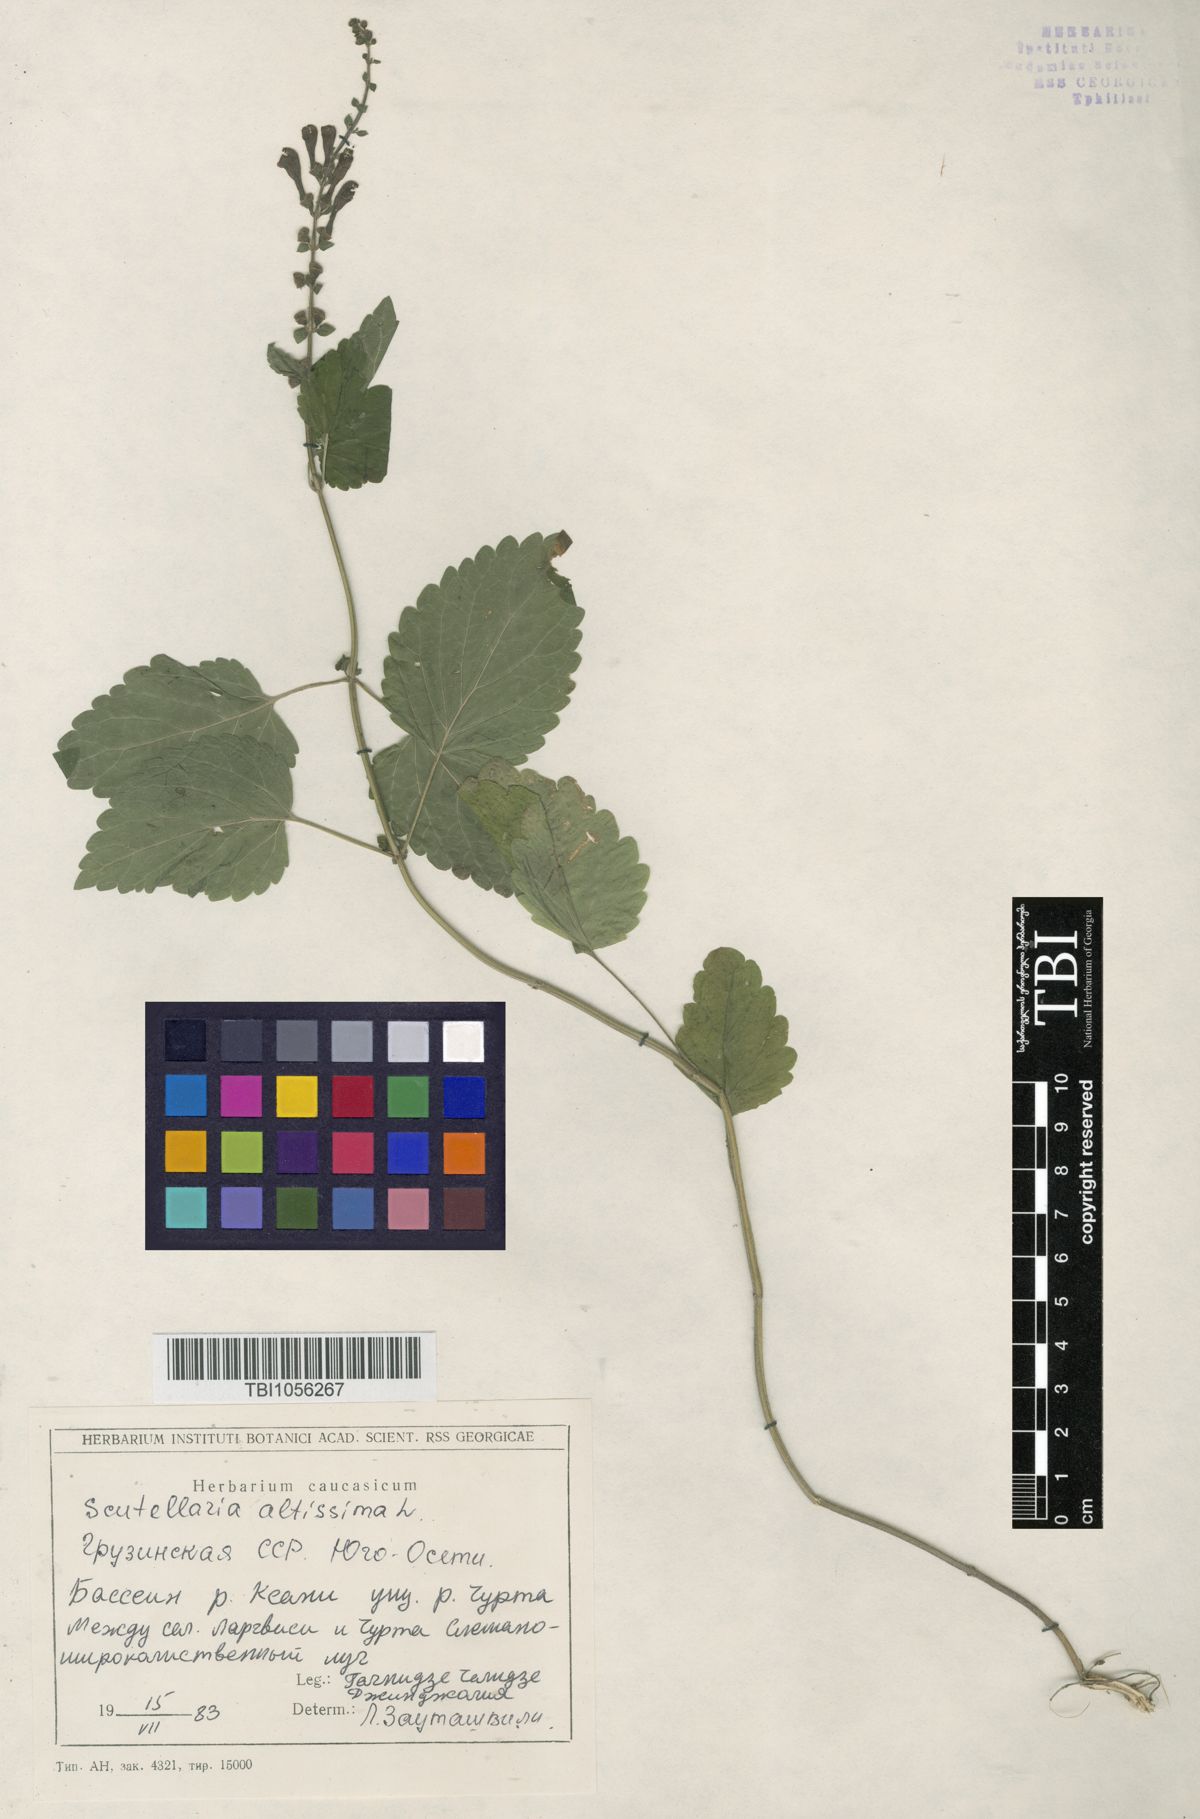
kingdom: Plantae
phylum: Tracheophyta
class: Magnoliopsida
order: Lamiales
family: Lamiaceae
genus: Scutellaria
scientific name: Scutellaria altissima
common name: Somerset skullcap
